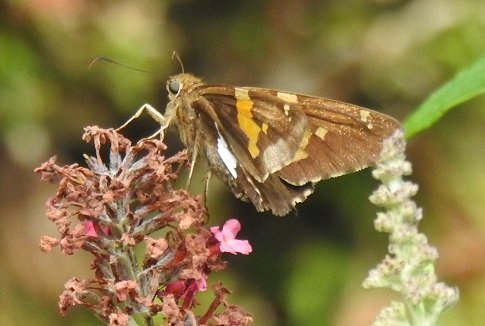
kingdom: Animalia
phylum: Arthropoda
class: Insecta
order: Lepidoptera
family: Hesperiidae
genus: Epargyreus
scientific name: Epargyreus clarus
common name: Silver-spotted Skipper
